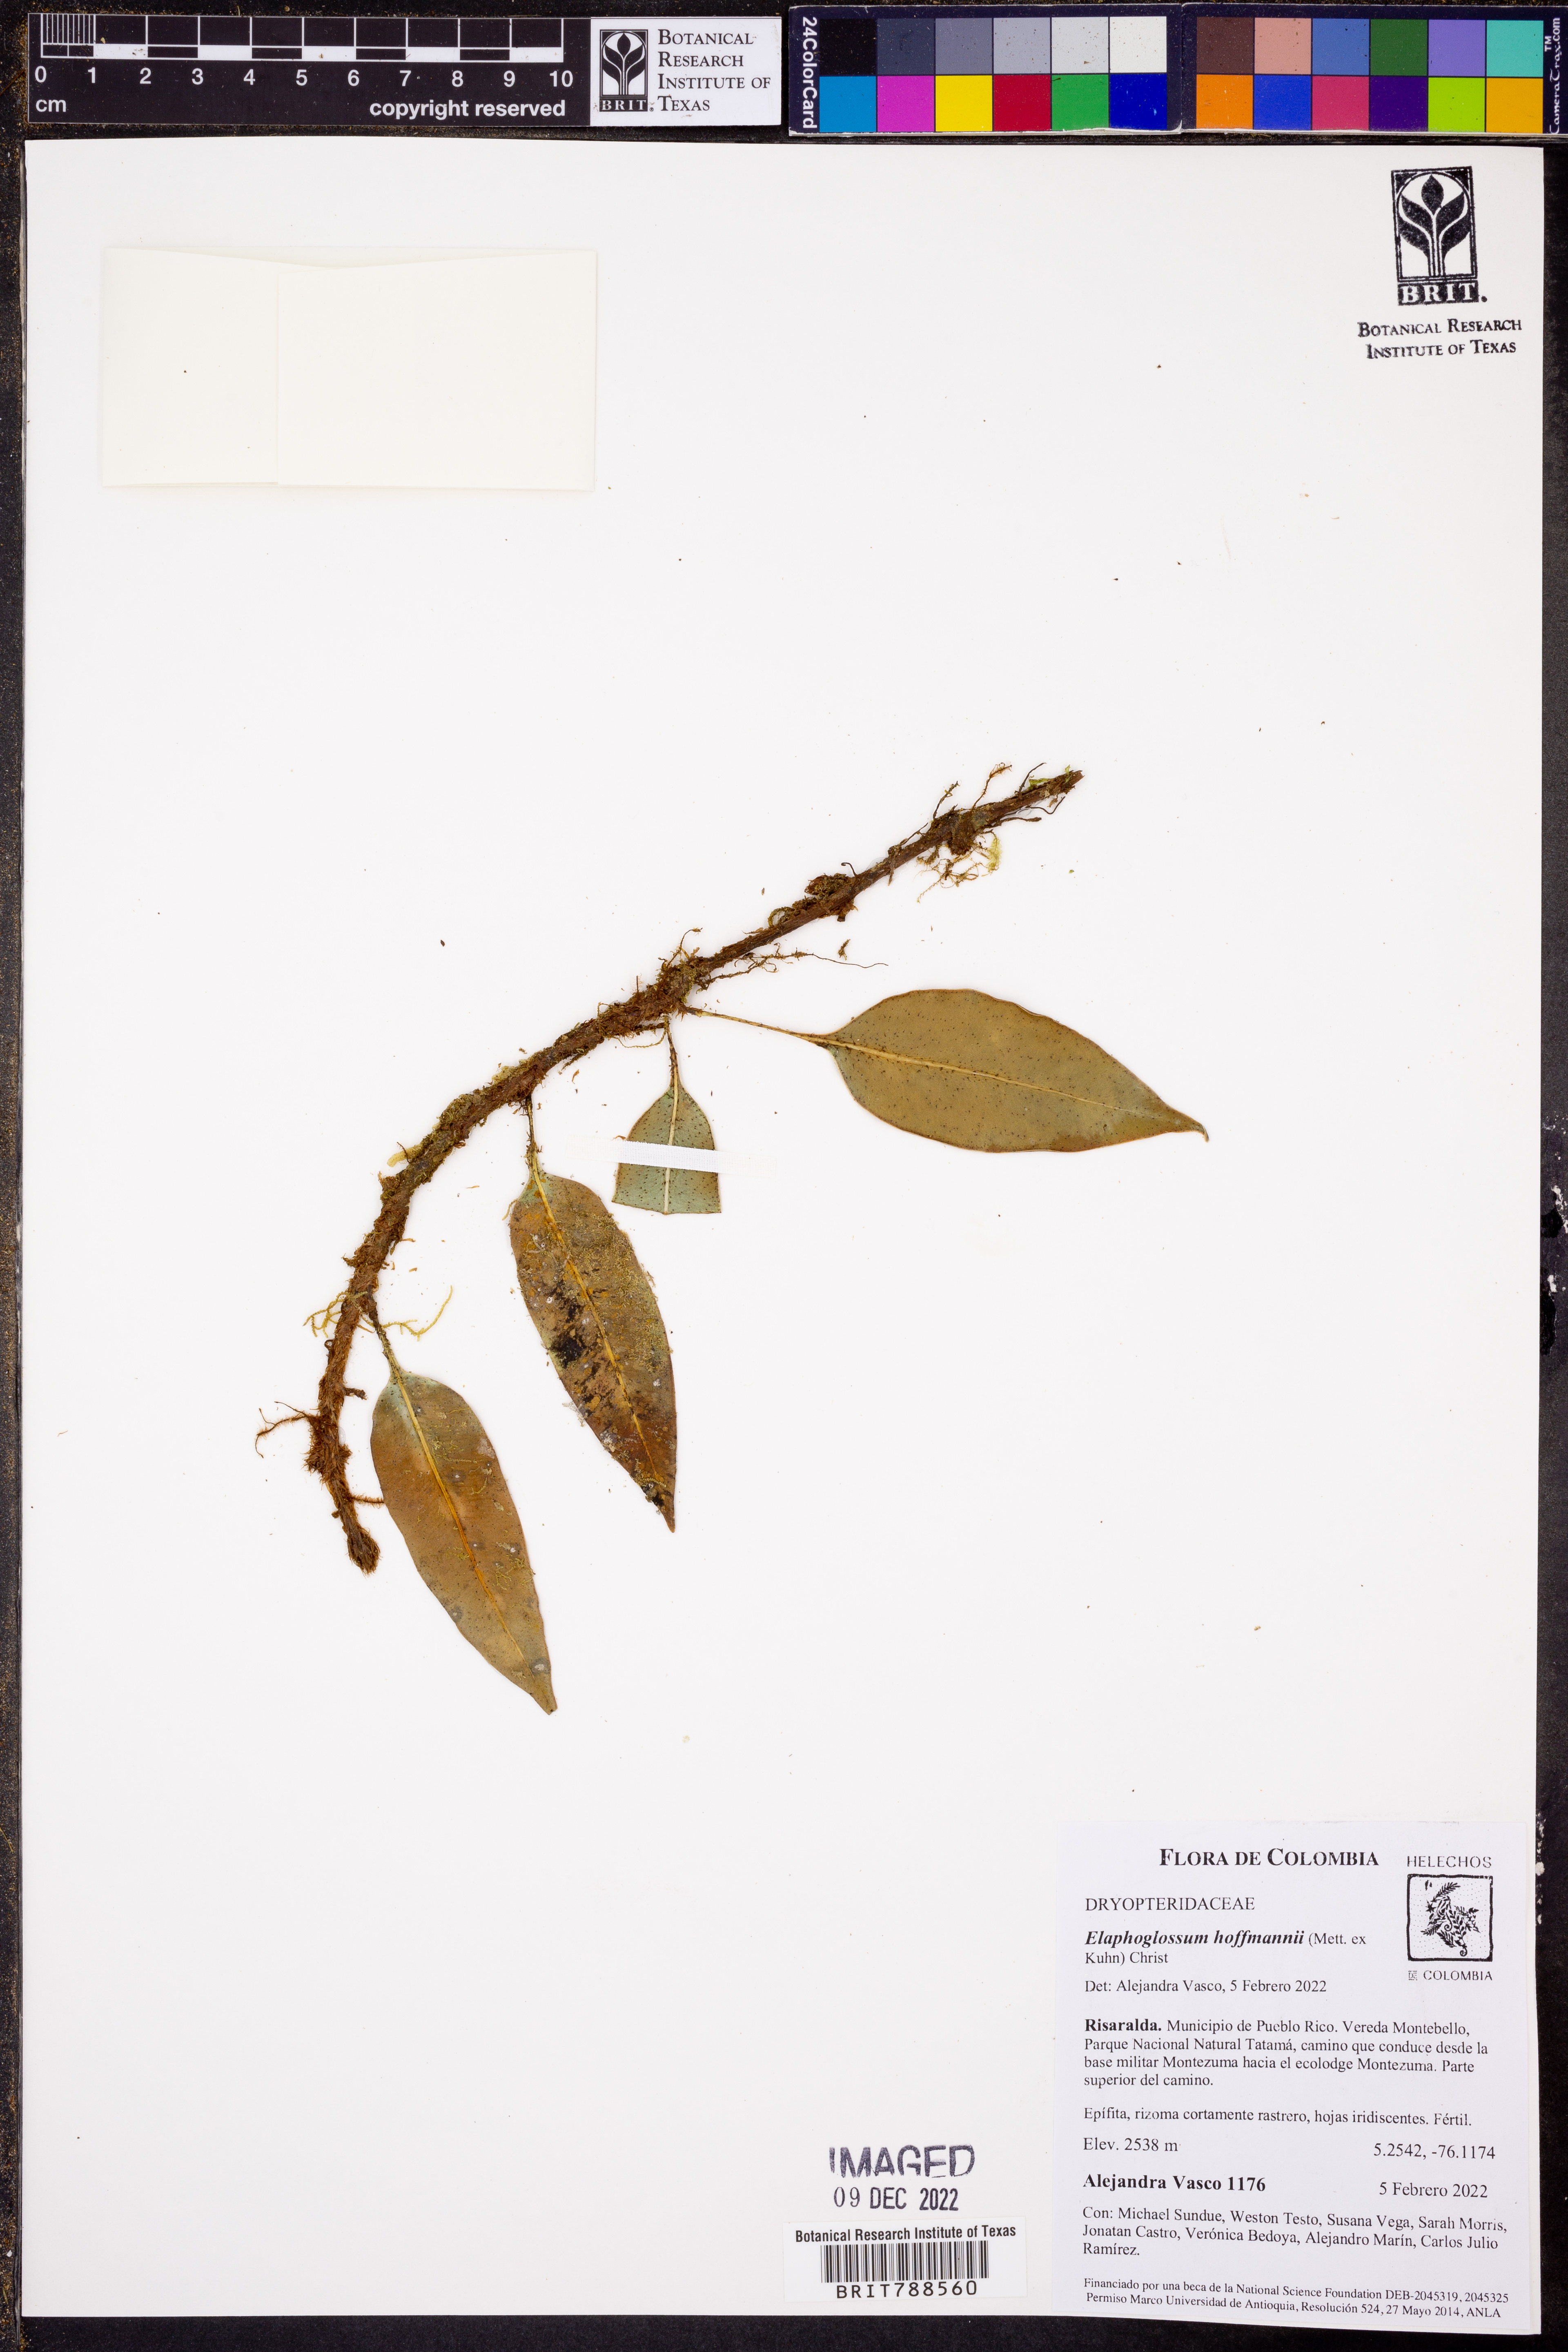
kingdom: Plantae
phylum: Tracheophyta
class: Polypodiopsida
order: Polypodiales
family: Dryopteridaceae
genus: Elaphoglossum
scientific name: Elaphoglossum antioquianum
